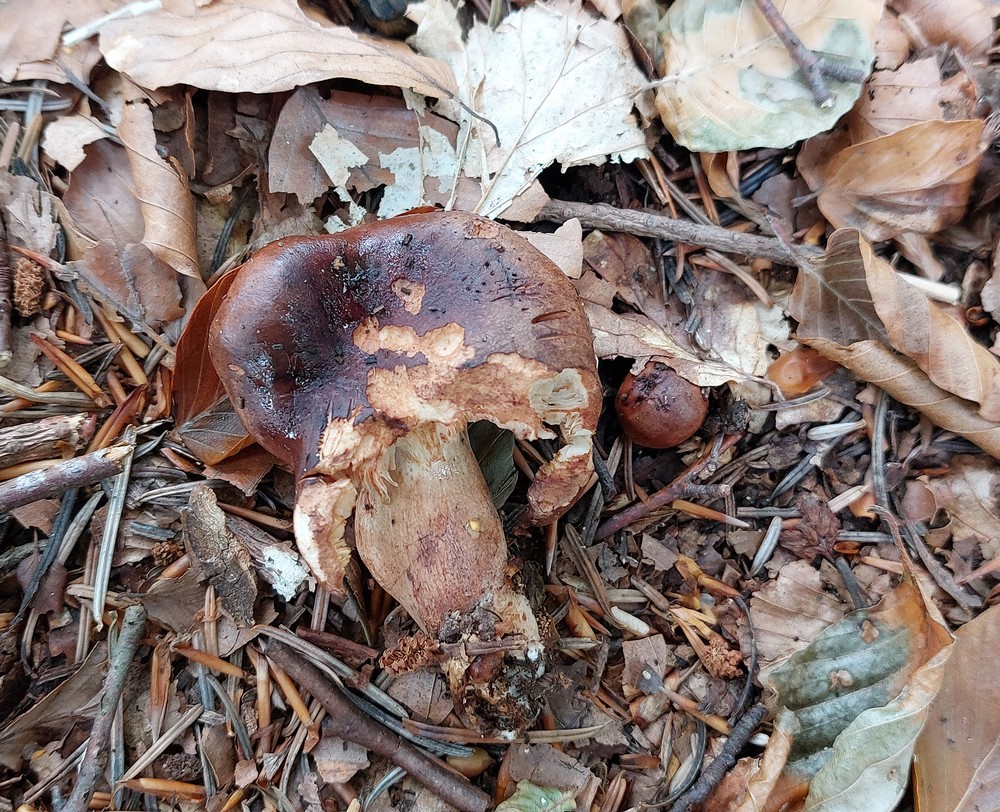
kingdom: Fungi
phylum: Basidiomycota
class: Agaricomycetes
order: Agaricales
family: Tricholomataceae
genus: Tricholoma
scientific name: Tricholoma ustale
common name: sveden ridderhat
